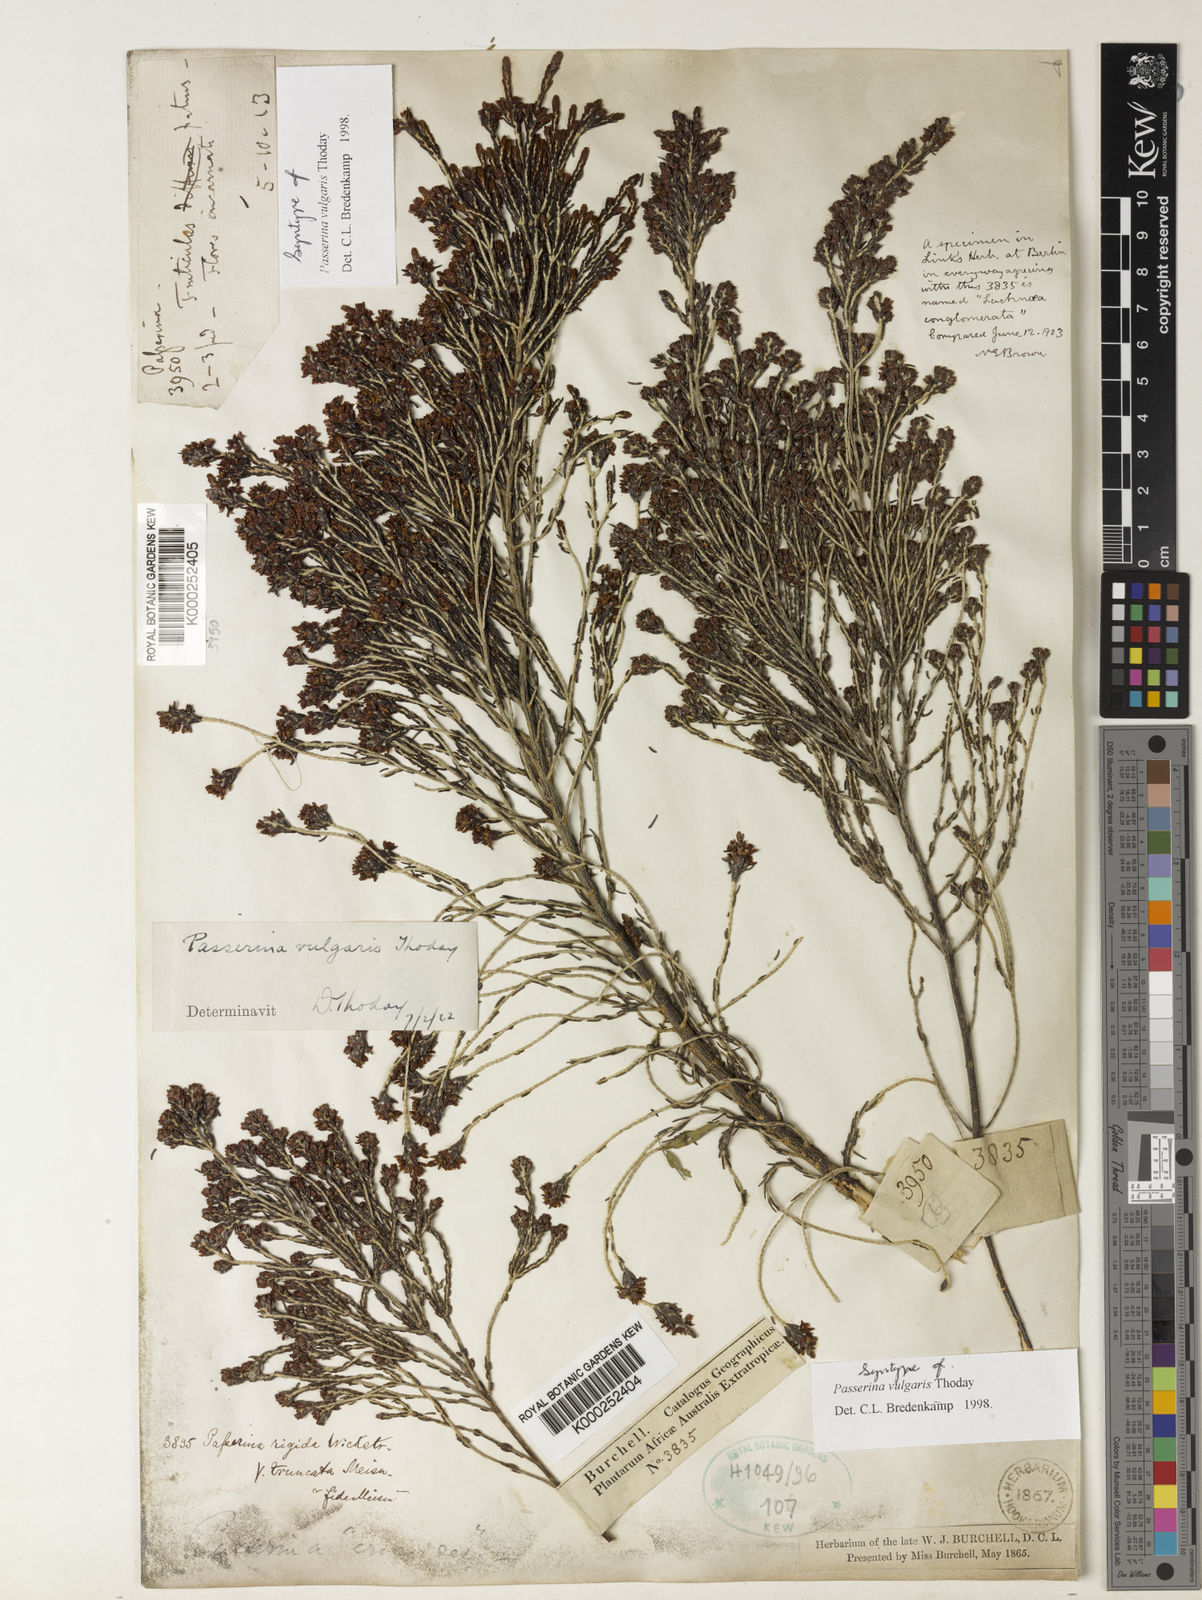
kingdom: Plantae
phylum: Tracheophyta
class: Magnoliopsida
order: Malvales
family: Thymelaeaceae
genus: Passerina
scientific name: Passerina corymbosa
